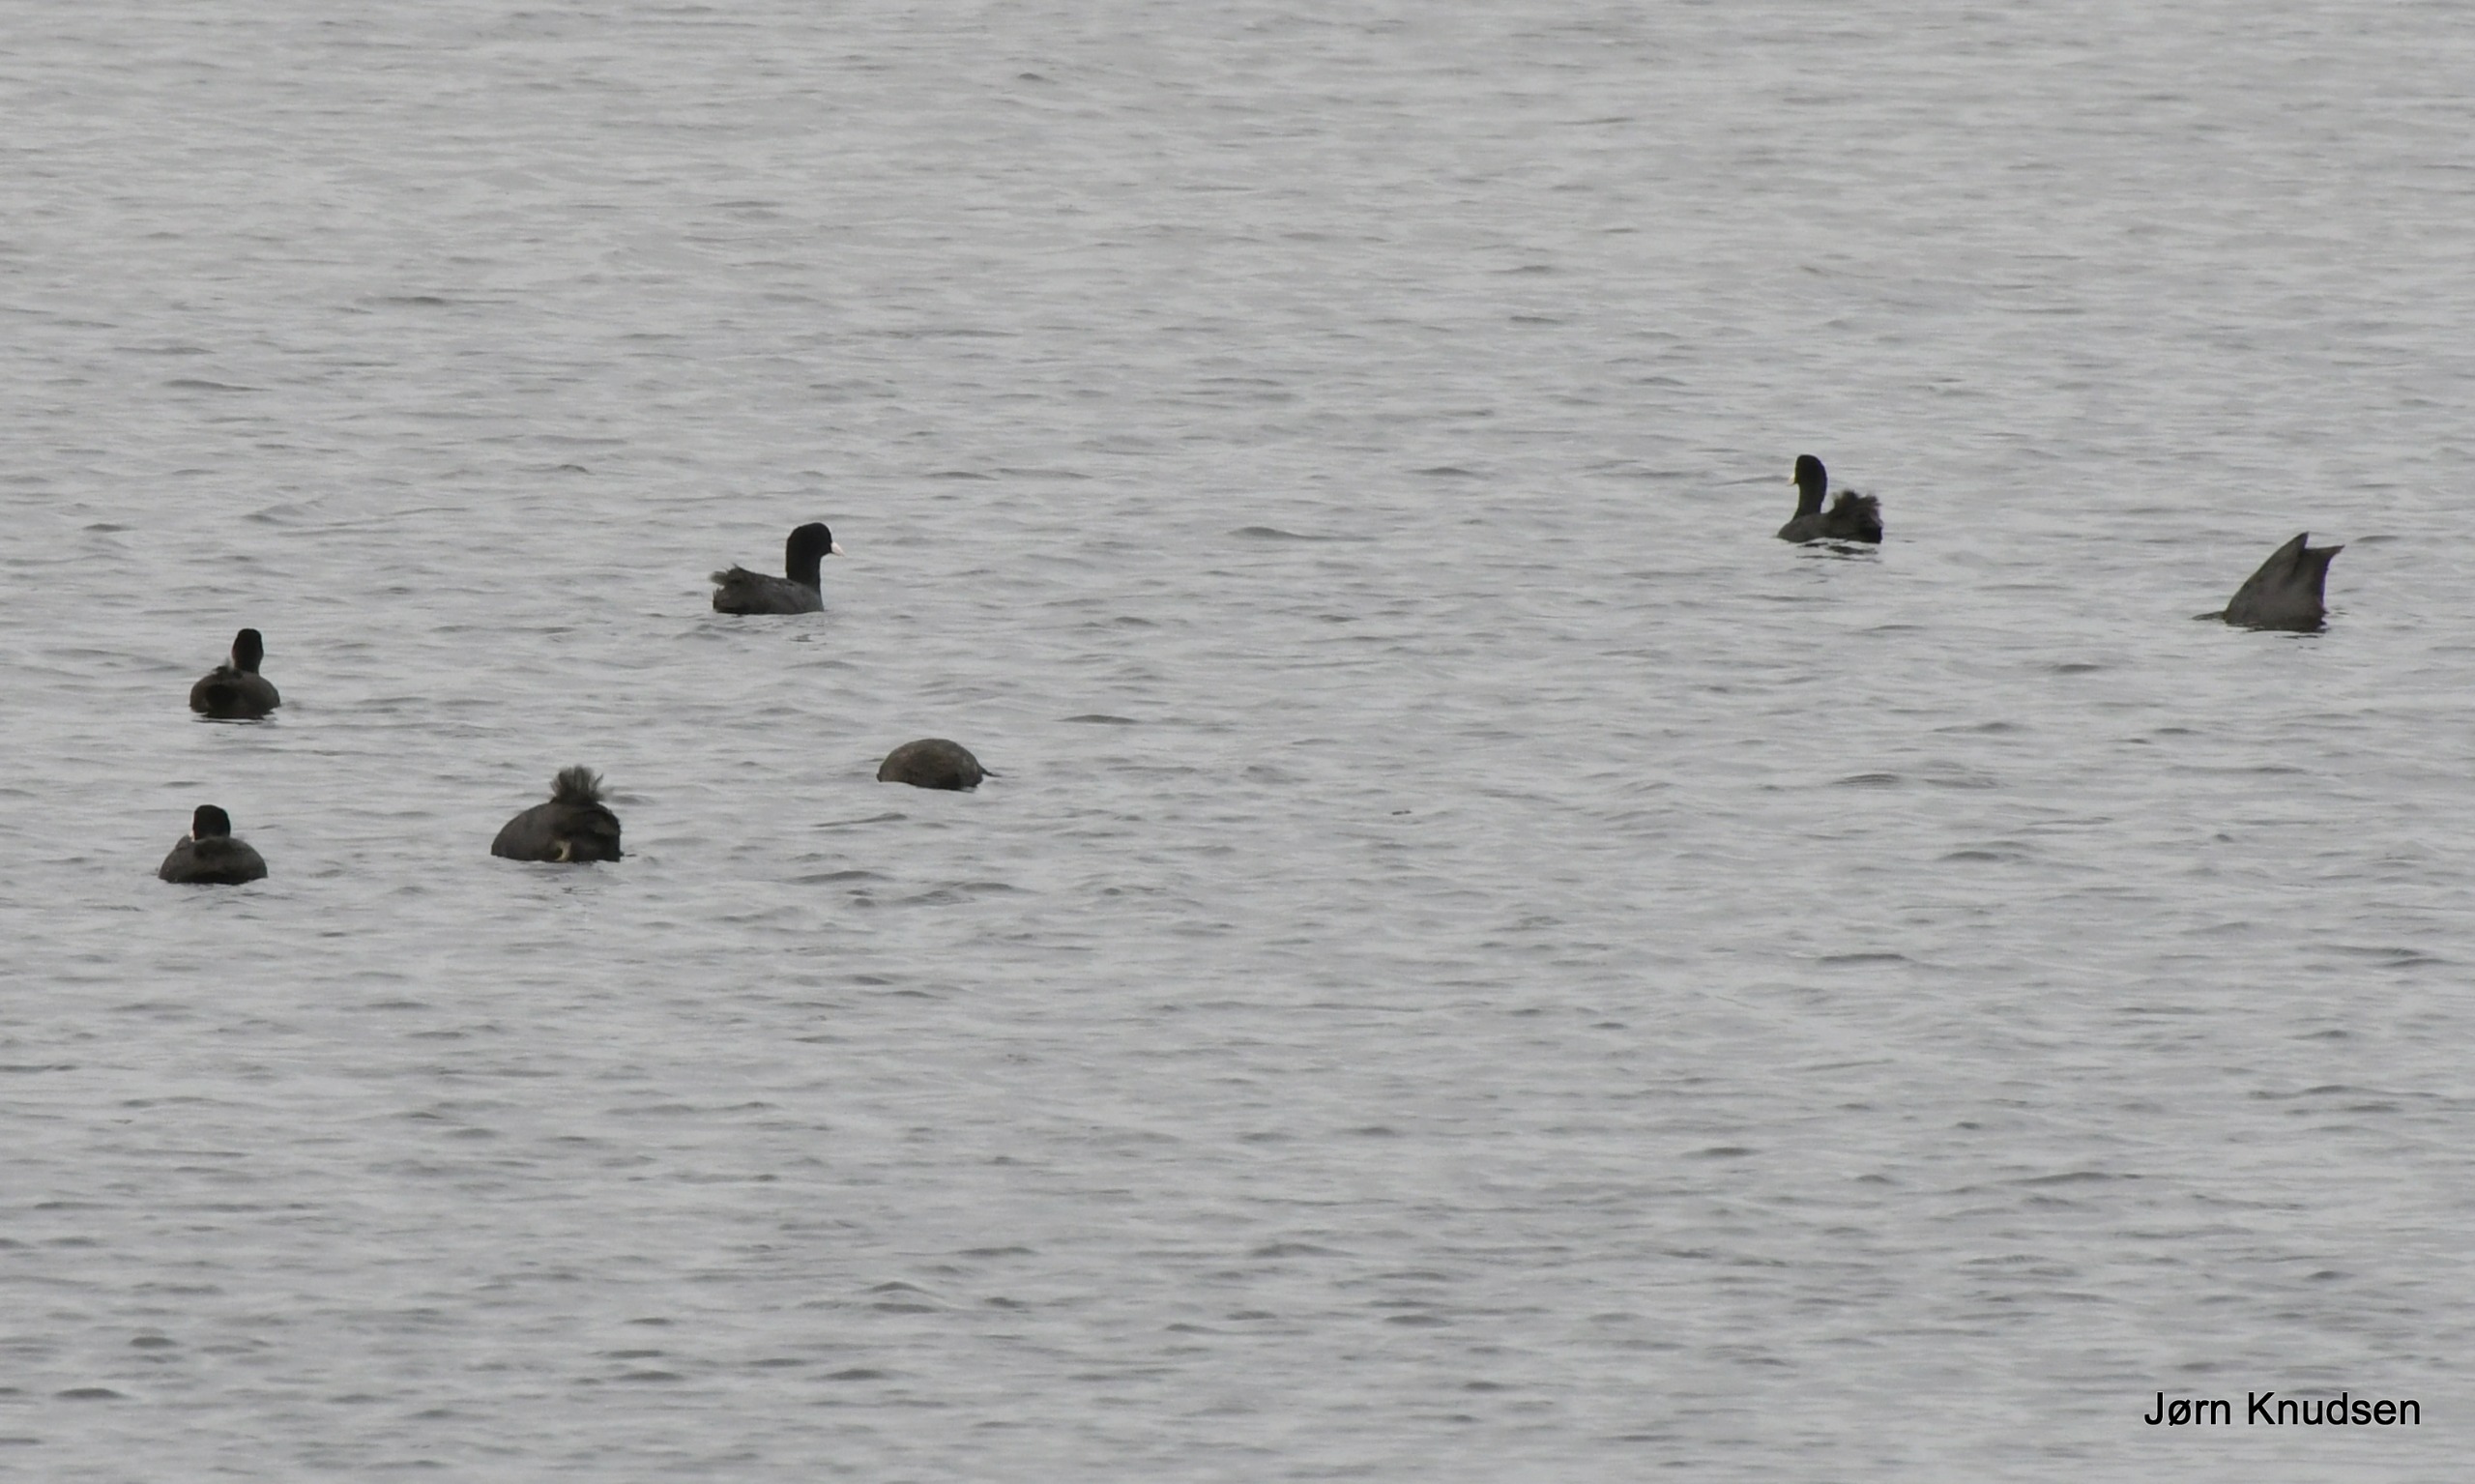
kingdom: Animalia
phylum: Chordata
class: Aves
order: Gruiformes
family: Rallidae
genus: Fulica
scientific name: Fulica atra
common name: Blishøne
